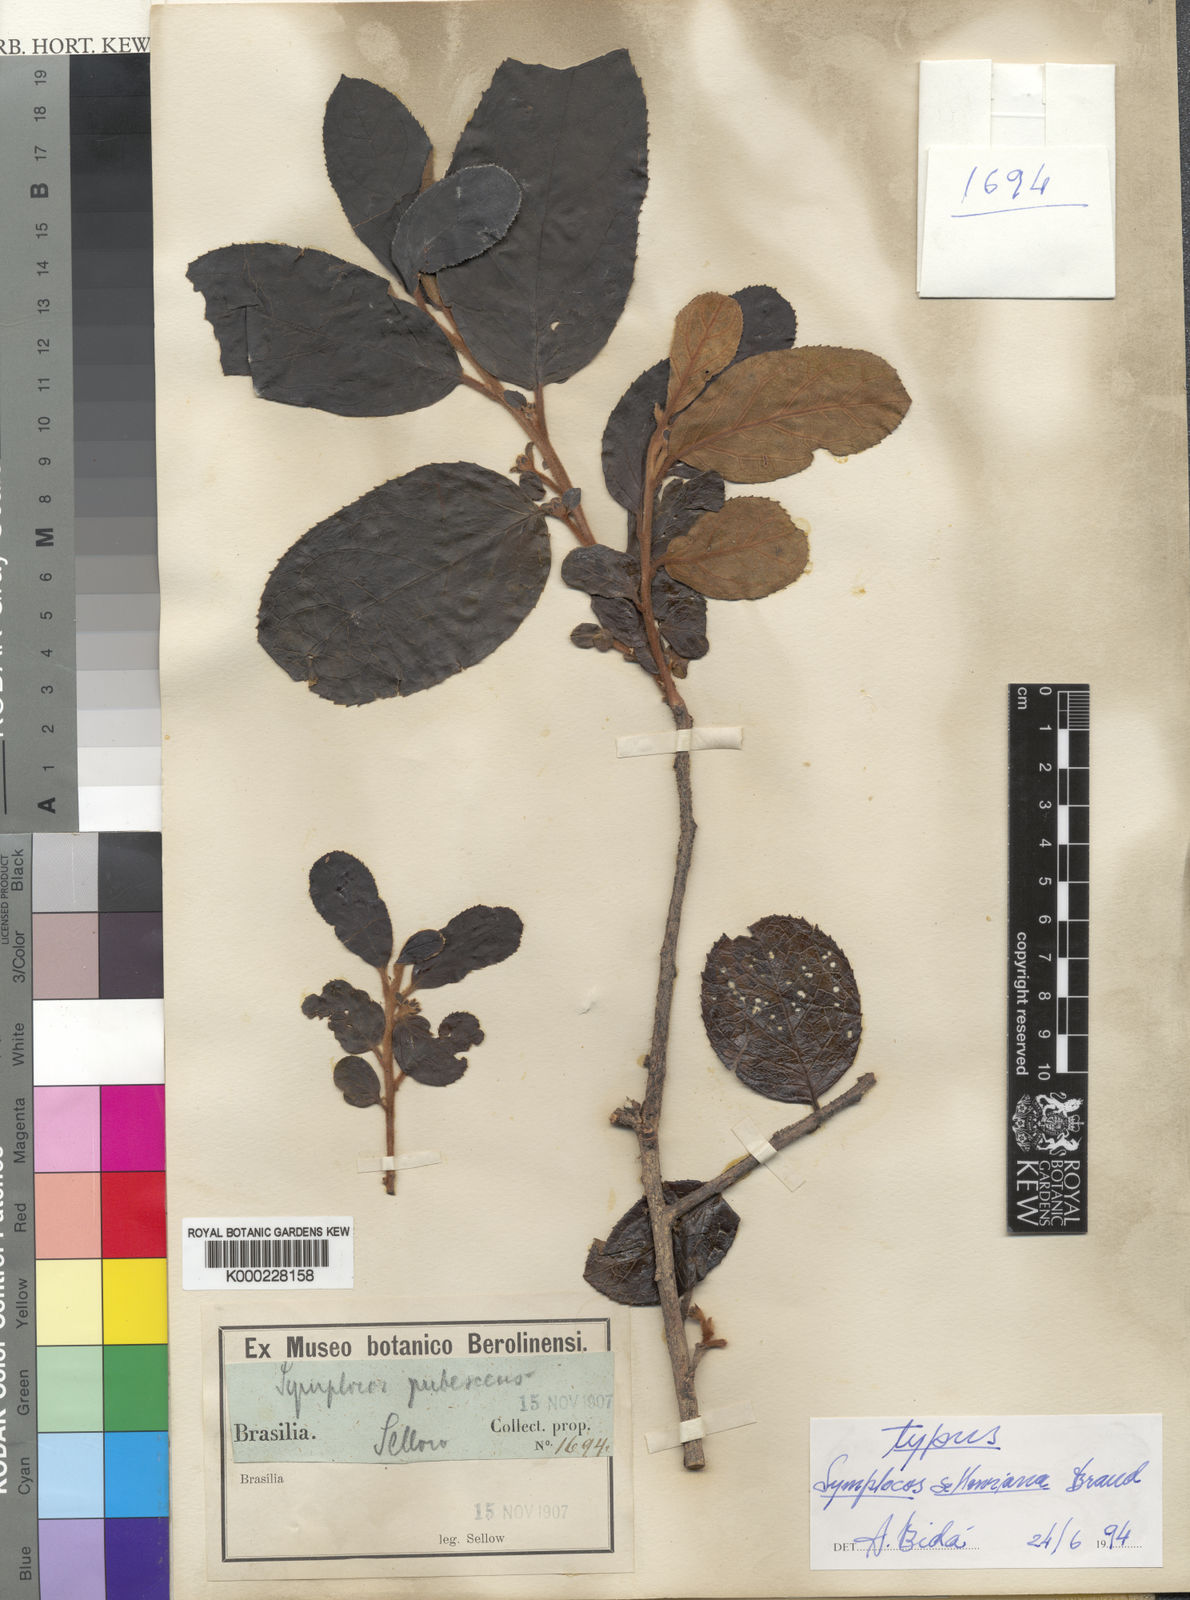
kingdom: Plantae
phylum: Tracheophyta
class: Magnoliopsida
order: Ericales
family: Symplocaceae
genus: Symplocos
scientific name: Symplocos platyphylla
